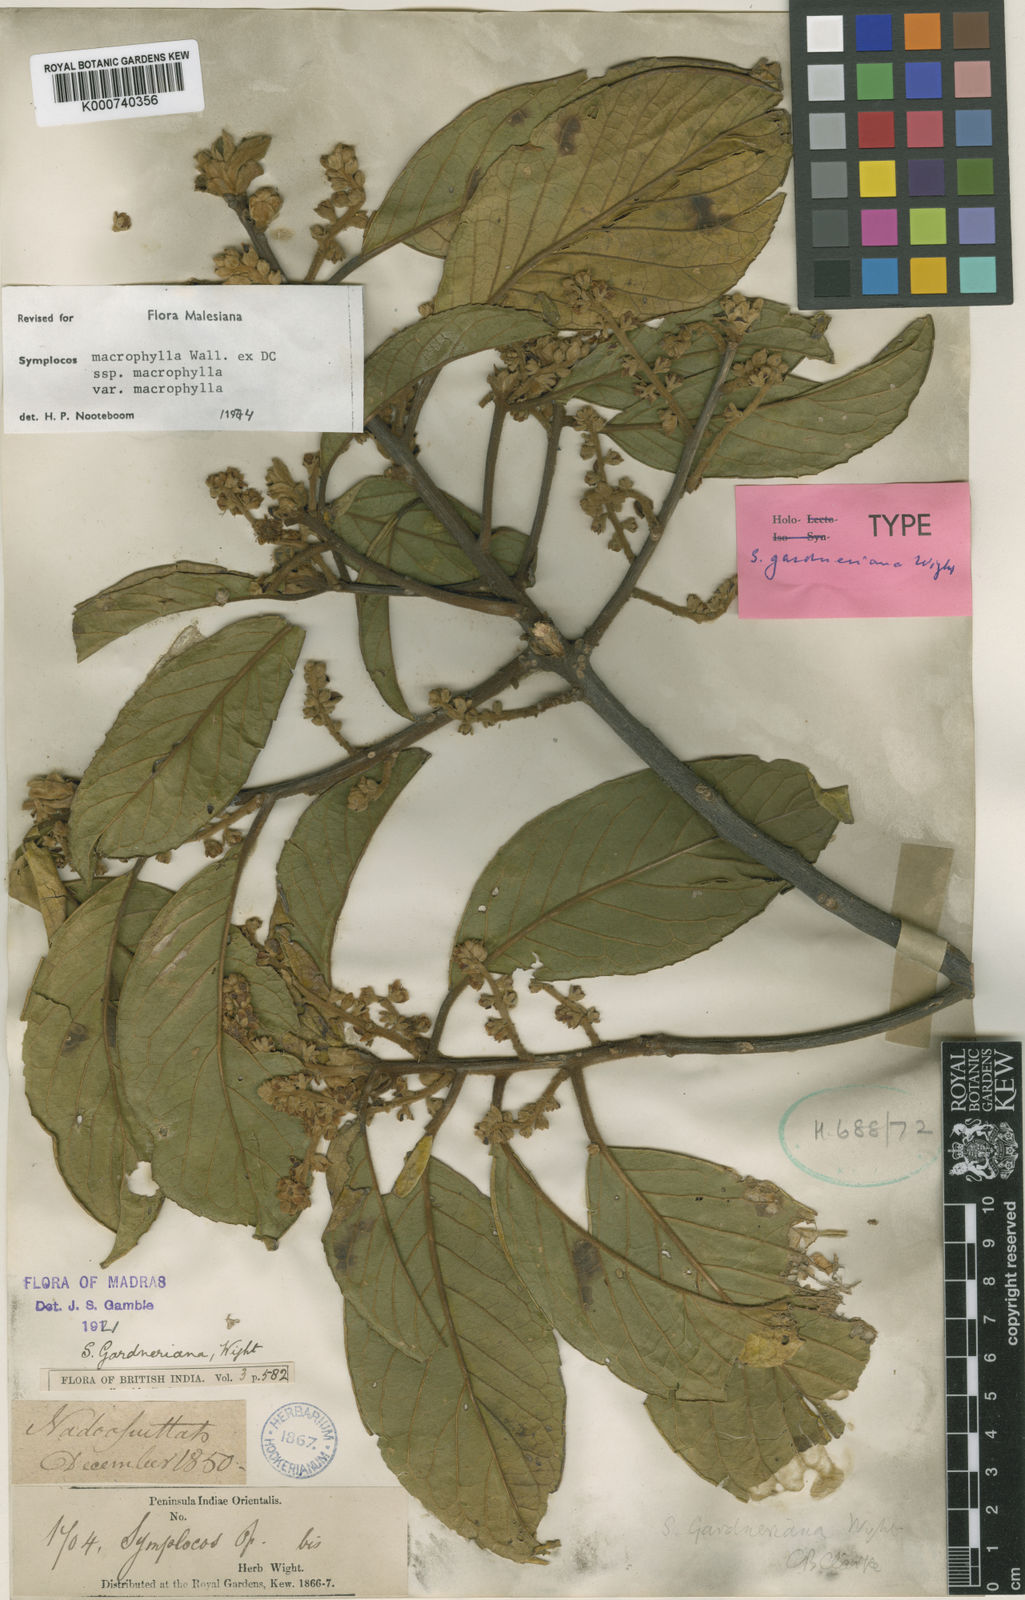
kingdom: Plantae
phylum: Tracheophyta
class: Magnoliopsida
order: Ericales
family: Symplocaceae
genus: Symplocos
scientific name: Symplocos
